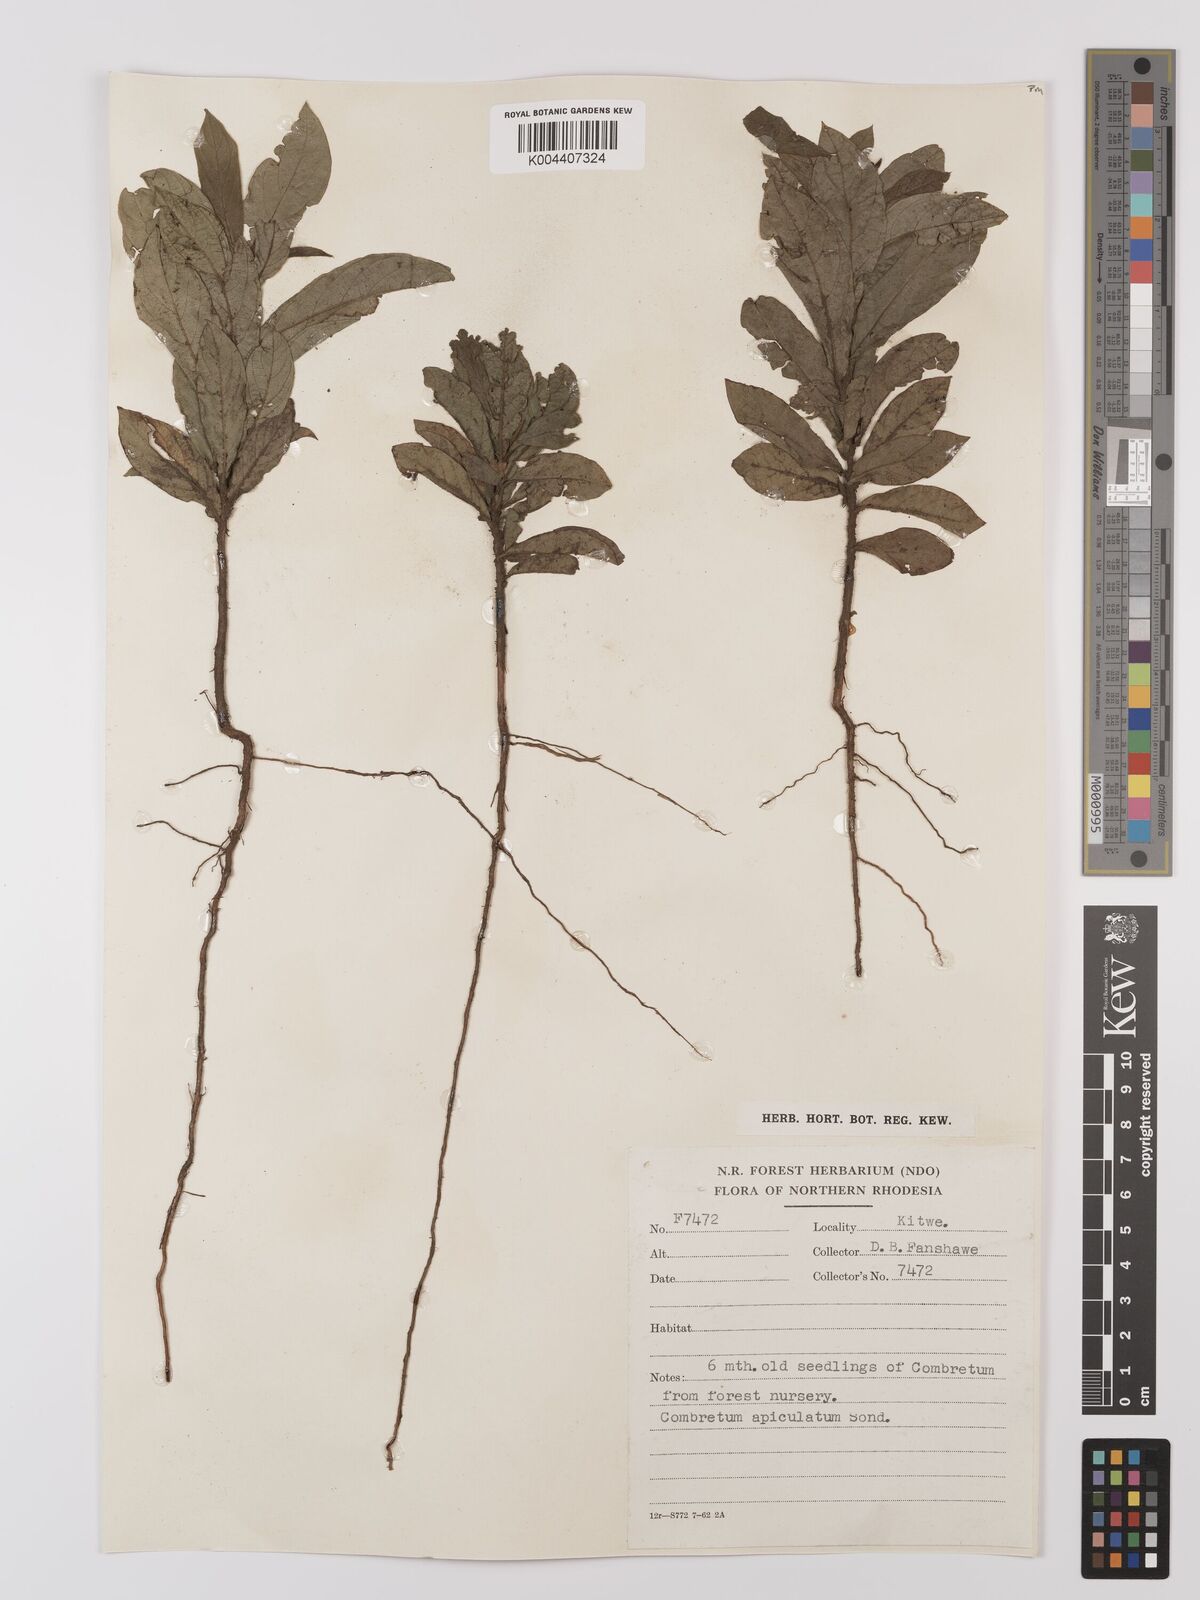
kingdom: Plantae
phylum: Tracheophyta
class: Magnoliopsida
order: Myrtales
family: Combretaceae
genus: Combretum
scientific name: Combretum apiculatum
